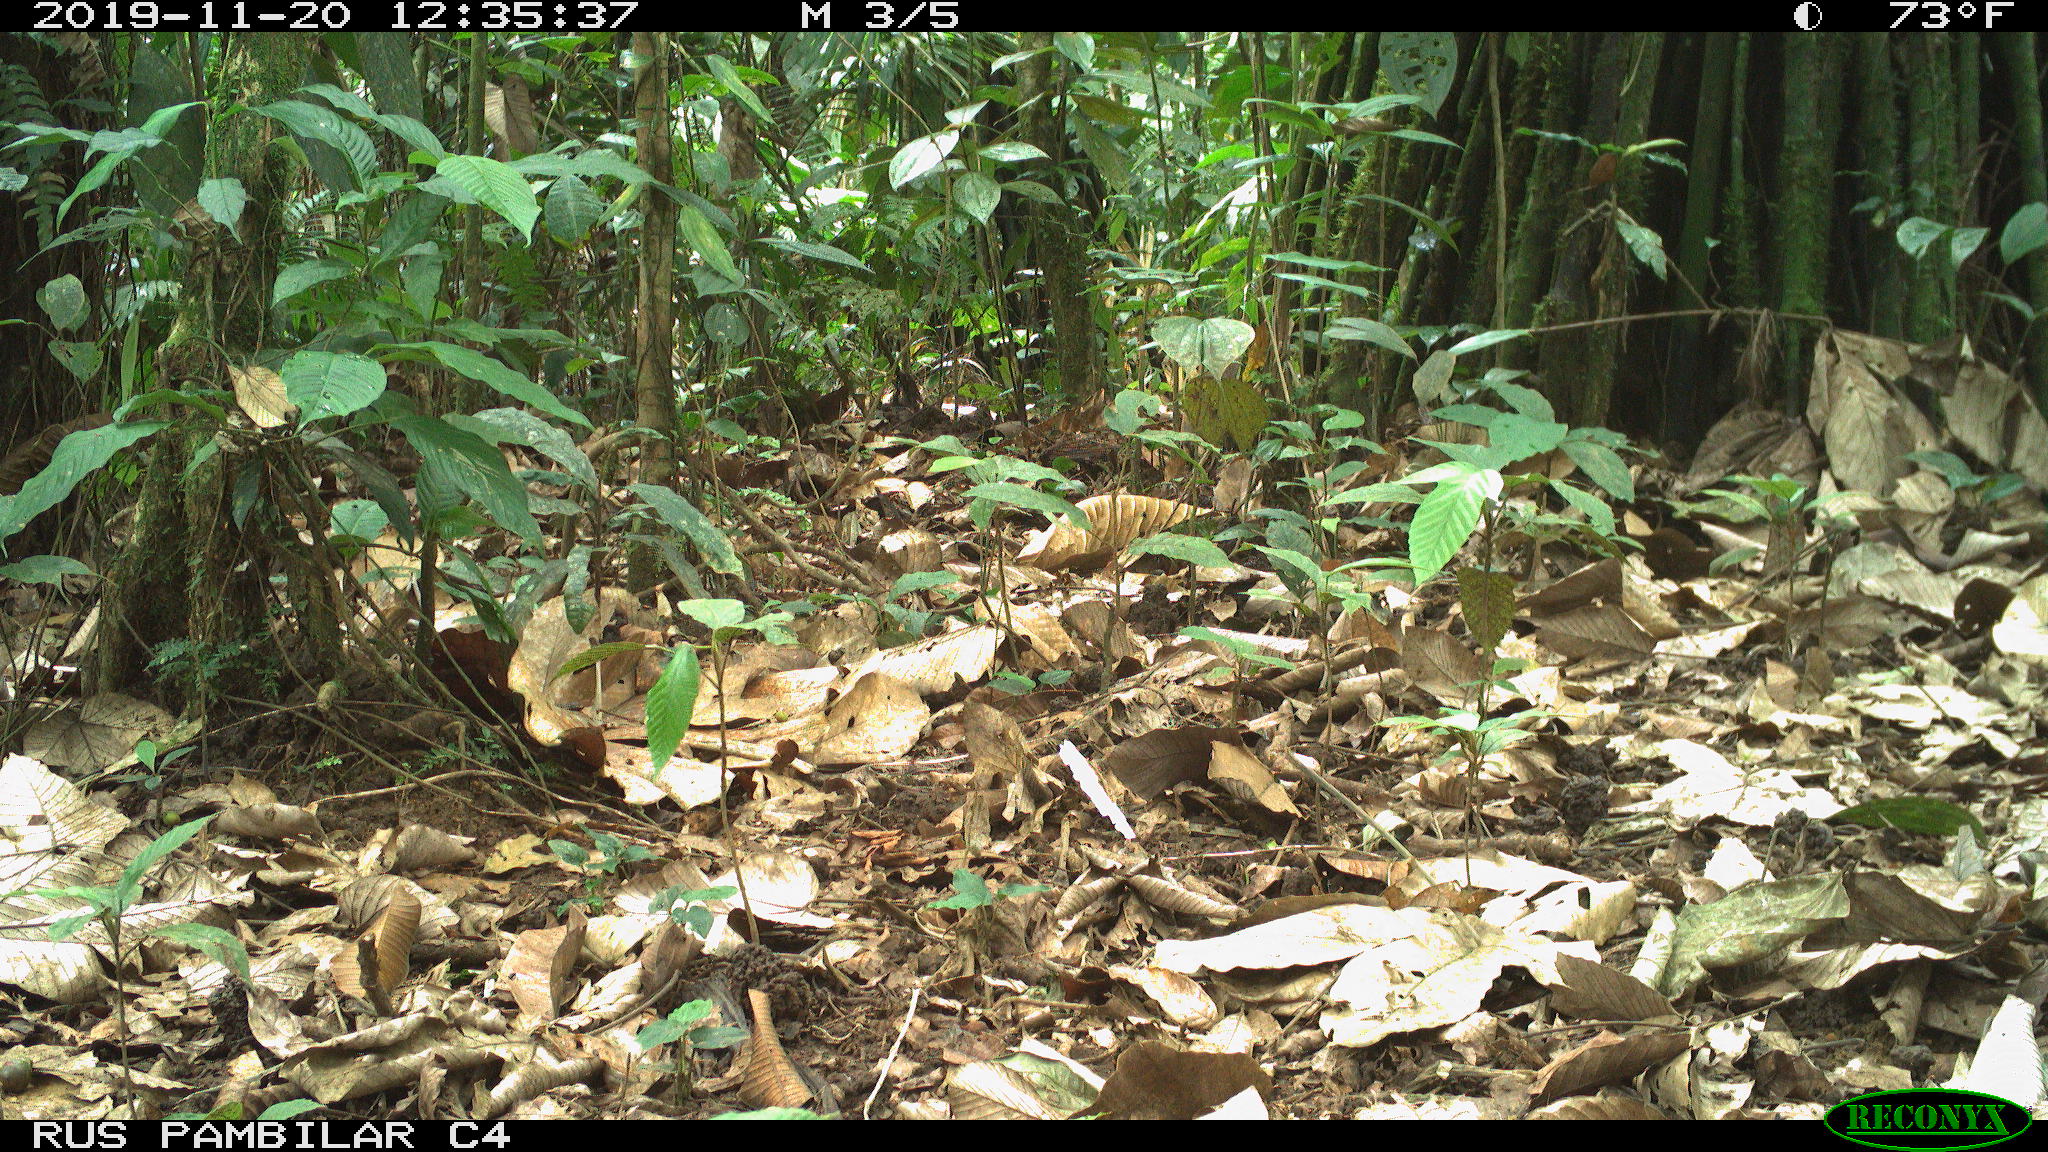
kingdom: Animalia
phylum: Chordata
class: Mammalia
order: Rodentia
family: Dasyproctidae
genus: Dasyprocta
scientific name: Dasyprocta punctata
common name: Central american agouti
